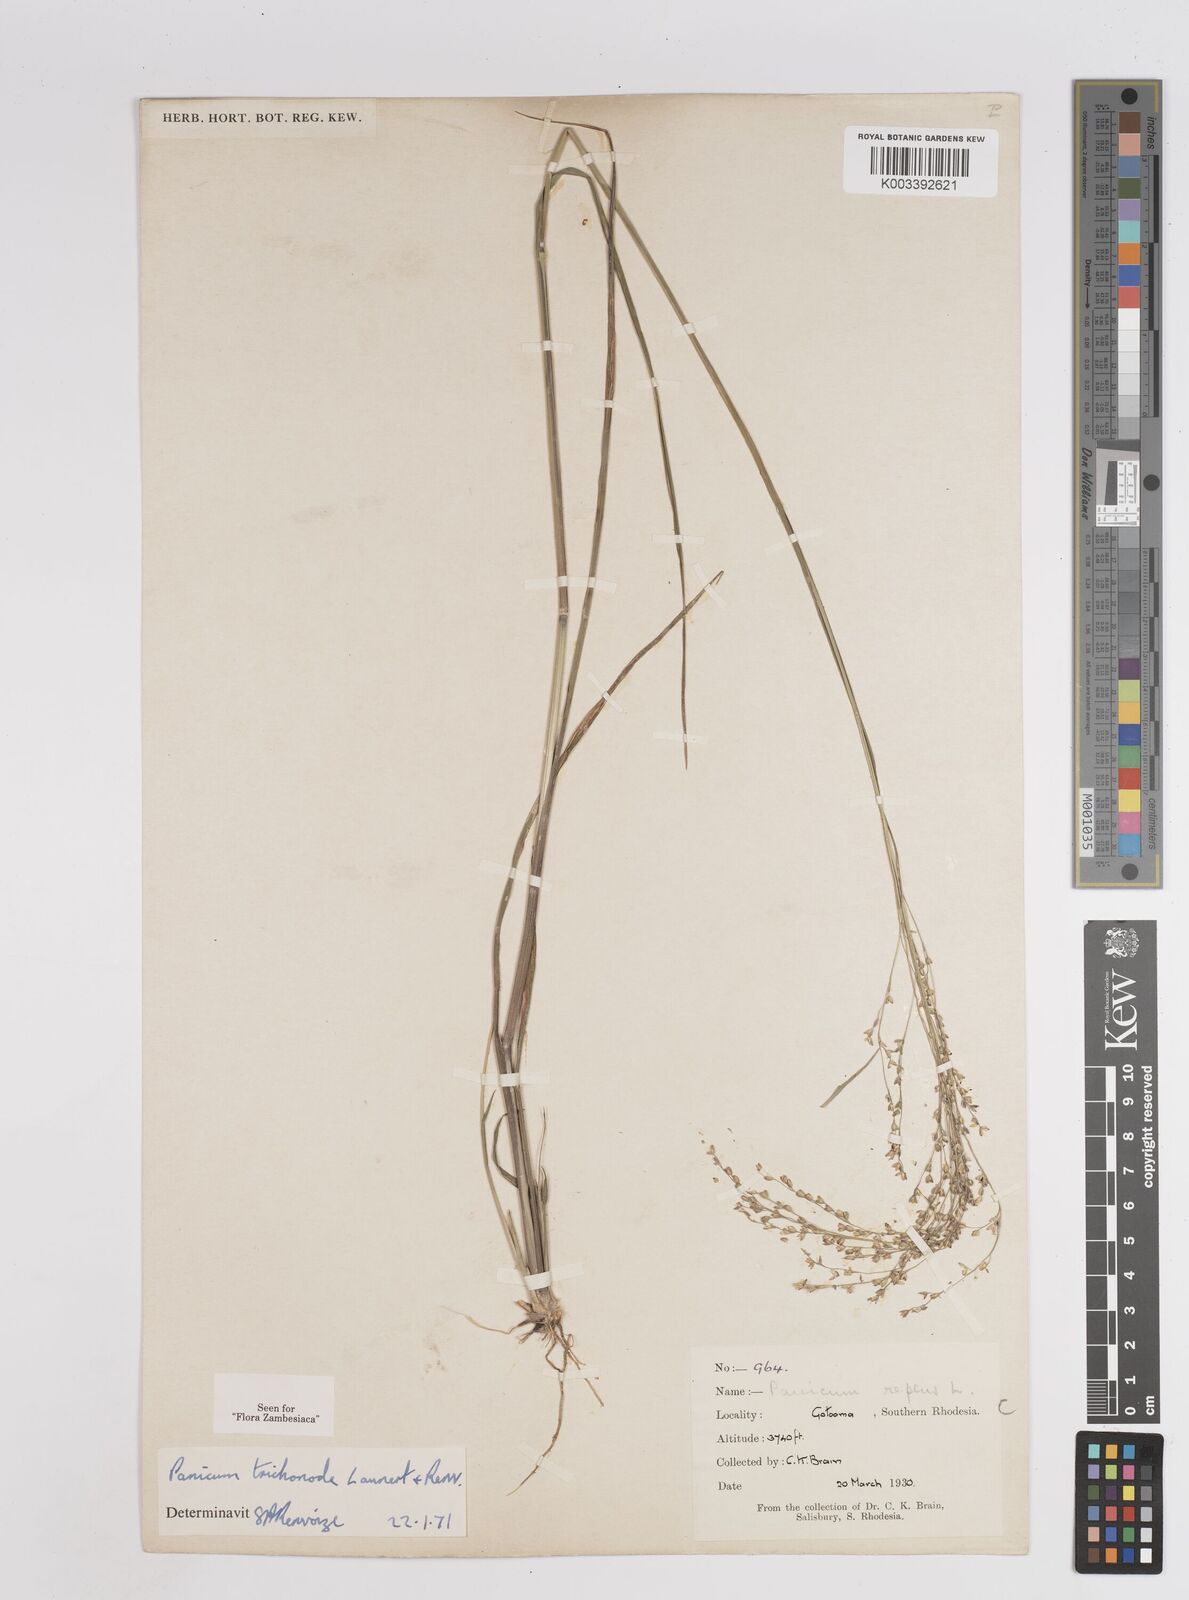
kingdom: Plantae
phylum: Tracheophyta
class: Liliopsida
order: Poales
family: Poaceae
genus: Panicum
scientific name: Panicum trichonode
